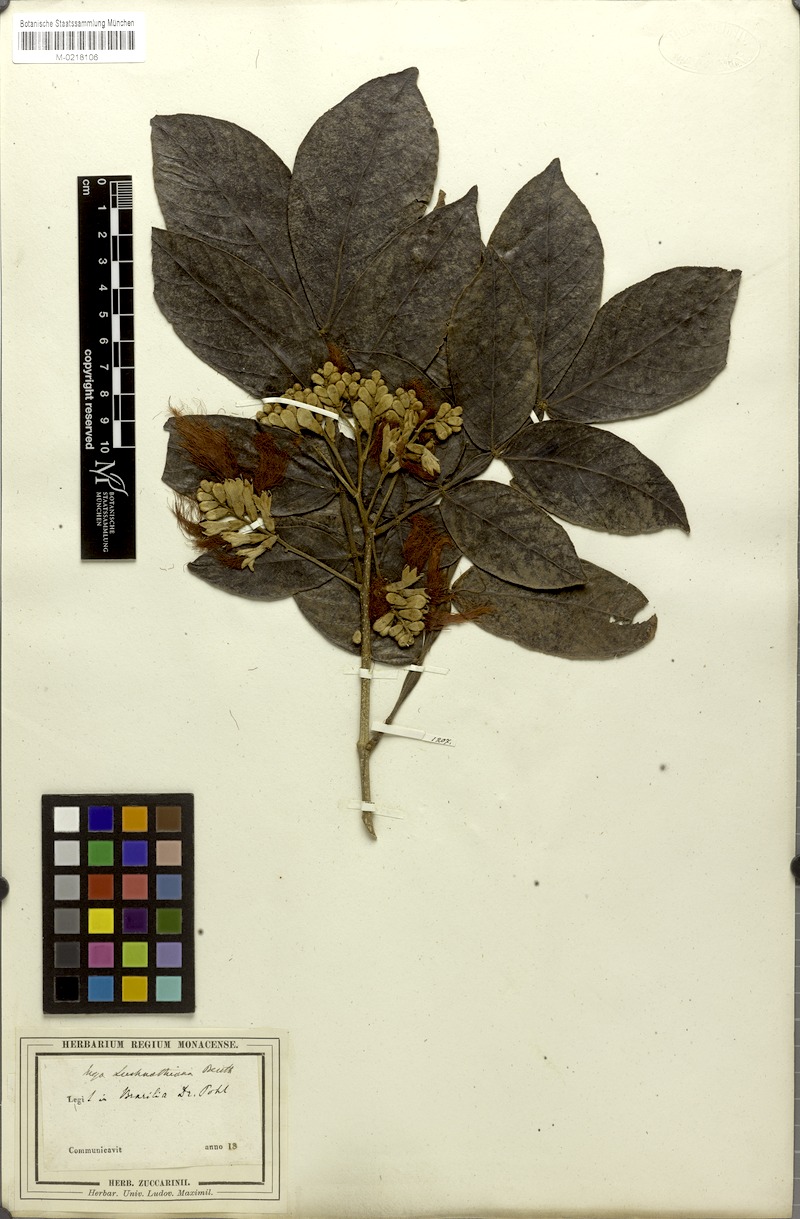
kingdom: Plantae
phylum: Tracheophyta
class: Magnoliopsida
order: Fabales
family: Fabaceae
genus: Inga
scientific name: Inga subnuda
